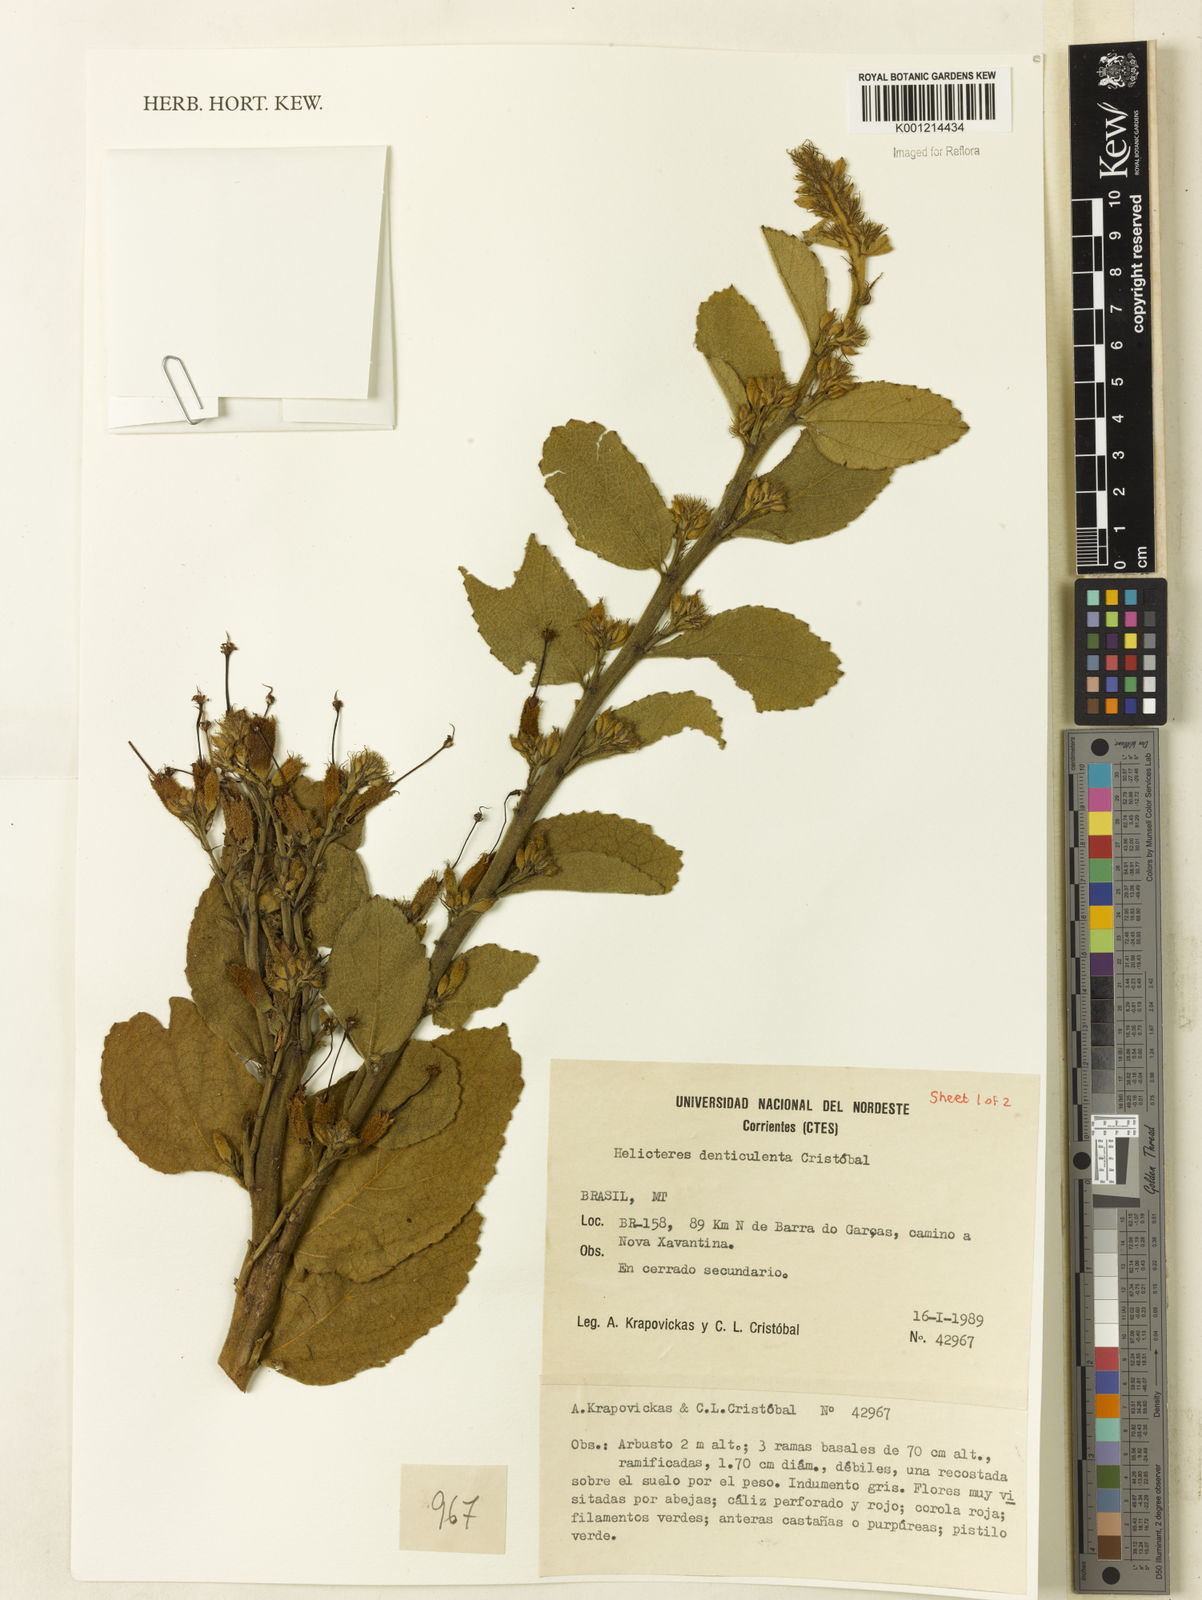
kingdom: Plantae
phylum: Tracheophyta
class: Magnoliopsida
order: Malvales
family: Malvaceae
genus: Helicteres
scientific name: Helicteres
